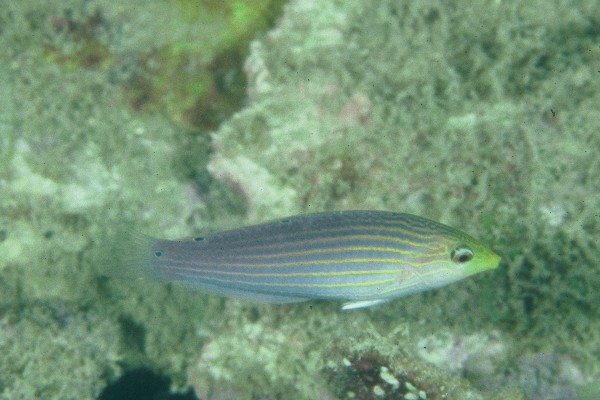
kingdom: Animalia
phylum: Chordata
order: Perciformes
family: Labridae
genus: Halichoeres
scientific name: Halichoeres chlorocephalus
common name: Greenhead wrasse
